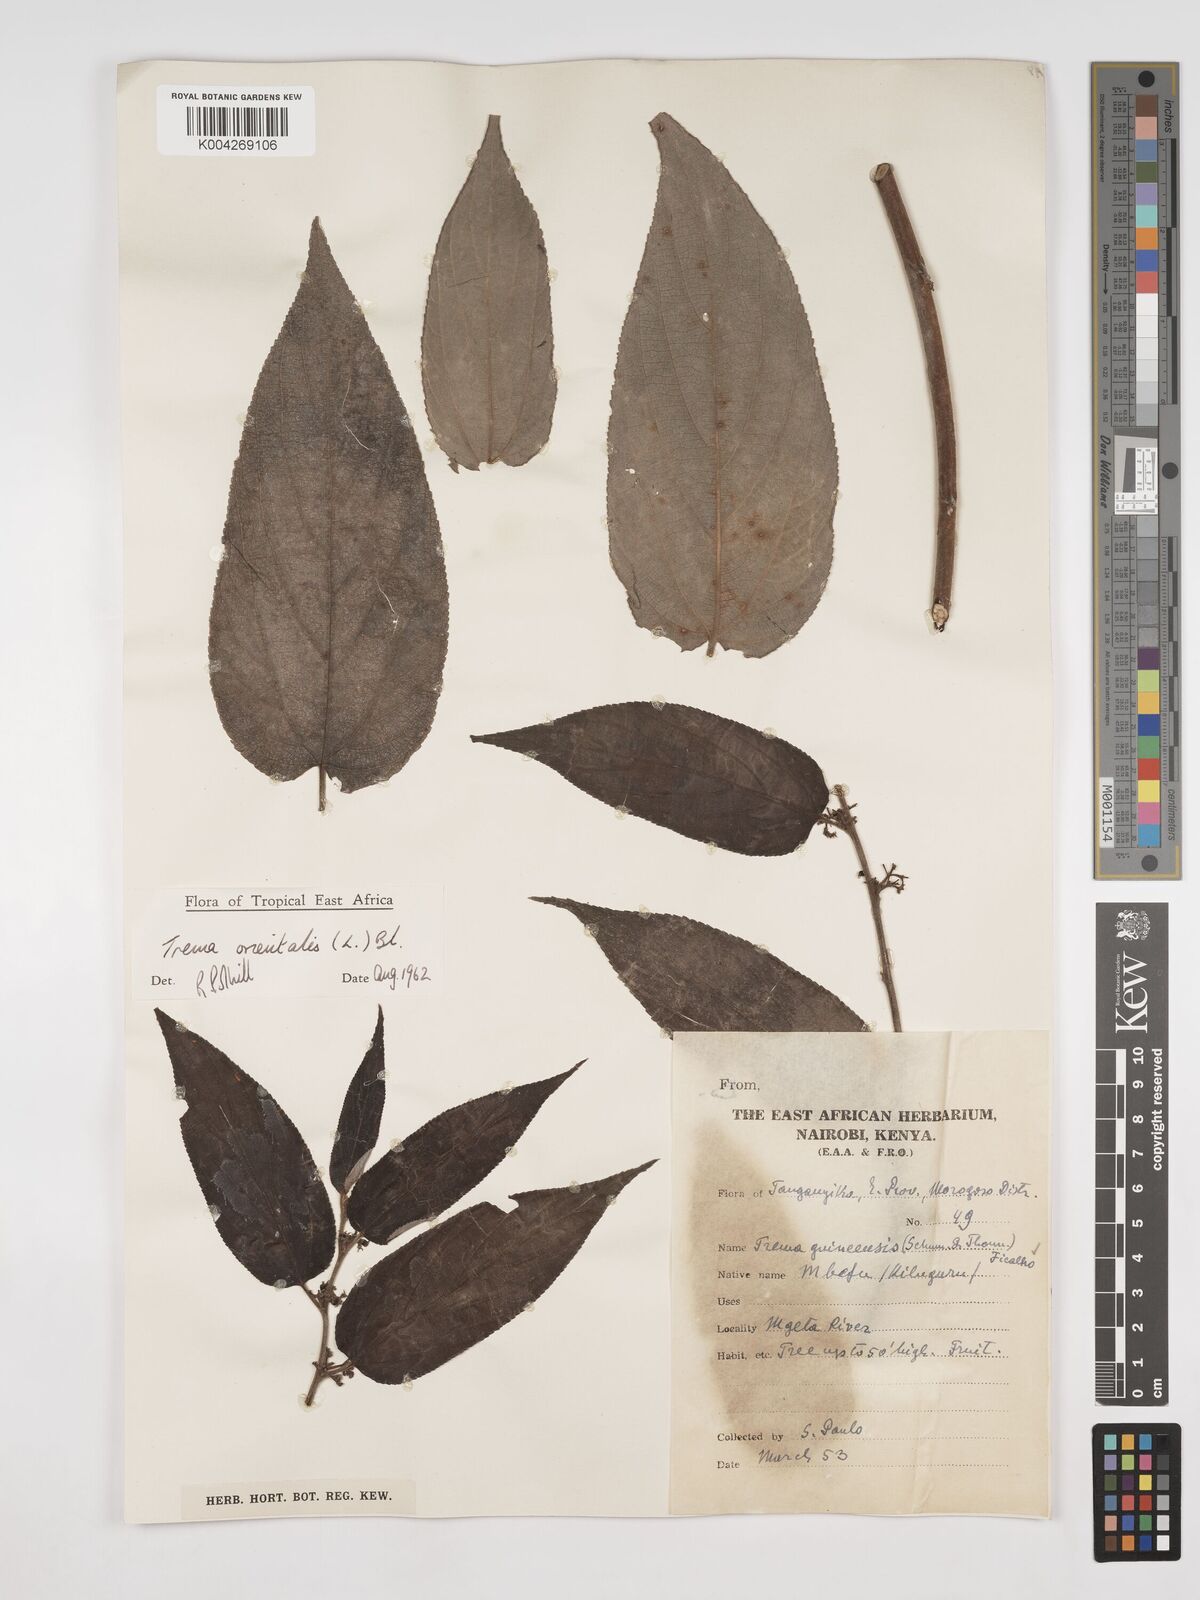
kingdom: Plantae
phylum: Tracheophyta
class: Magnoliopsida
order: Rosales
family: Cannabaceae
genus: Trema
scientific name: Trema orientale
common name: Indian charcoal tree
